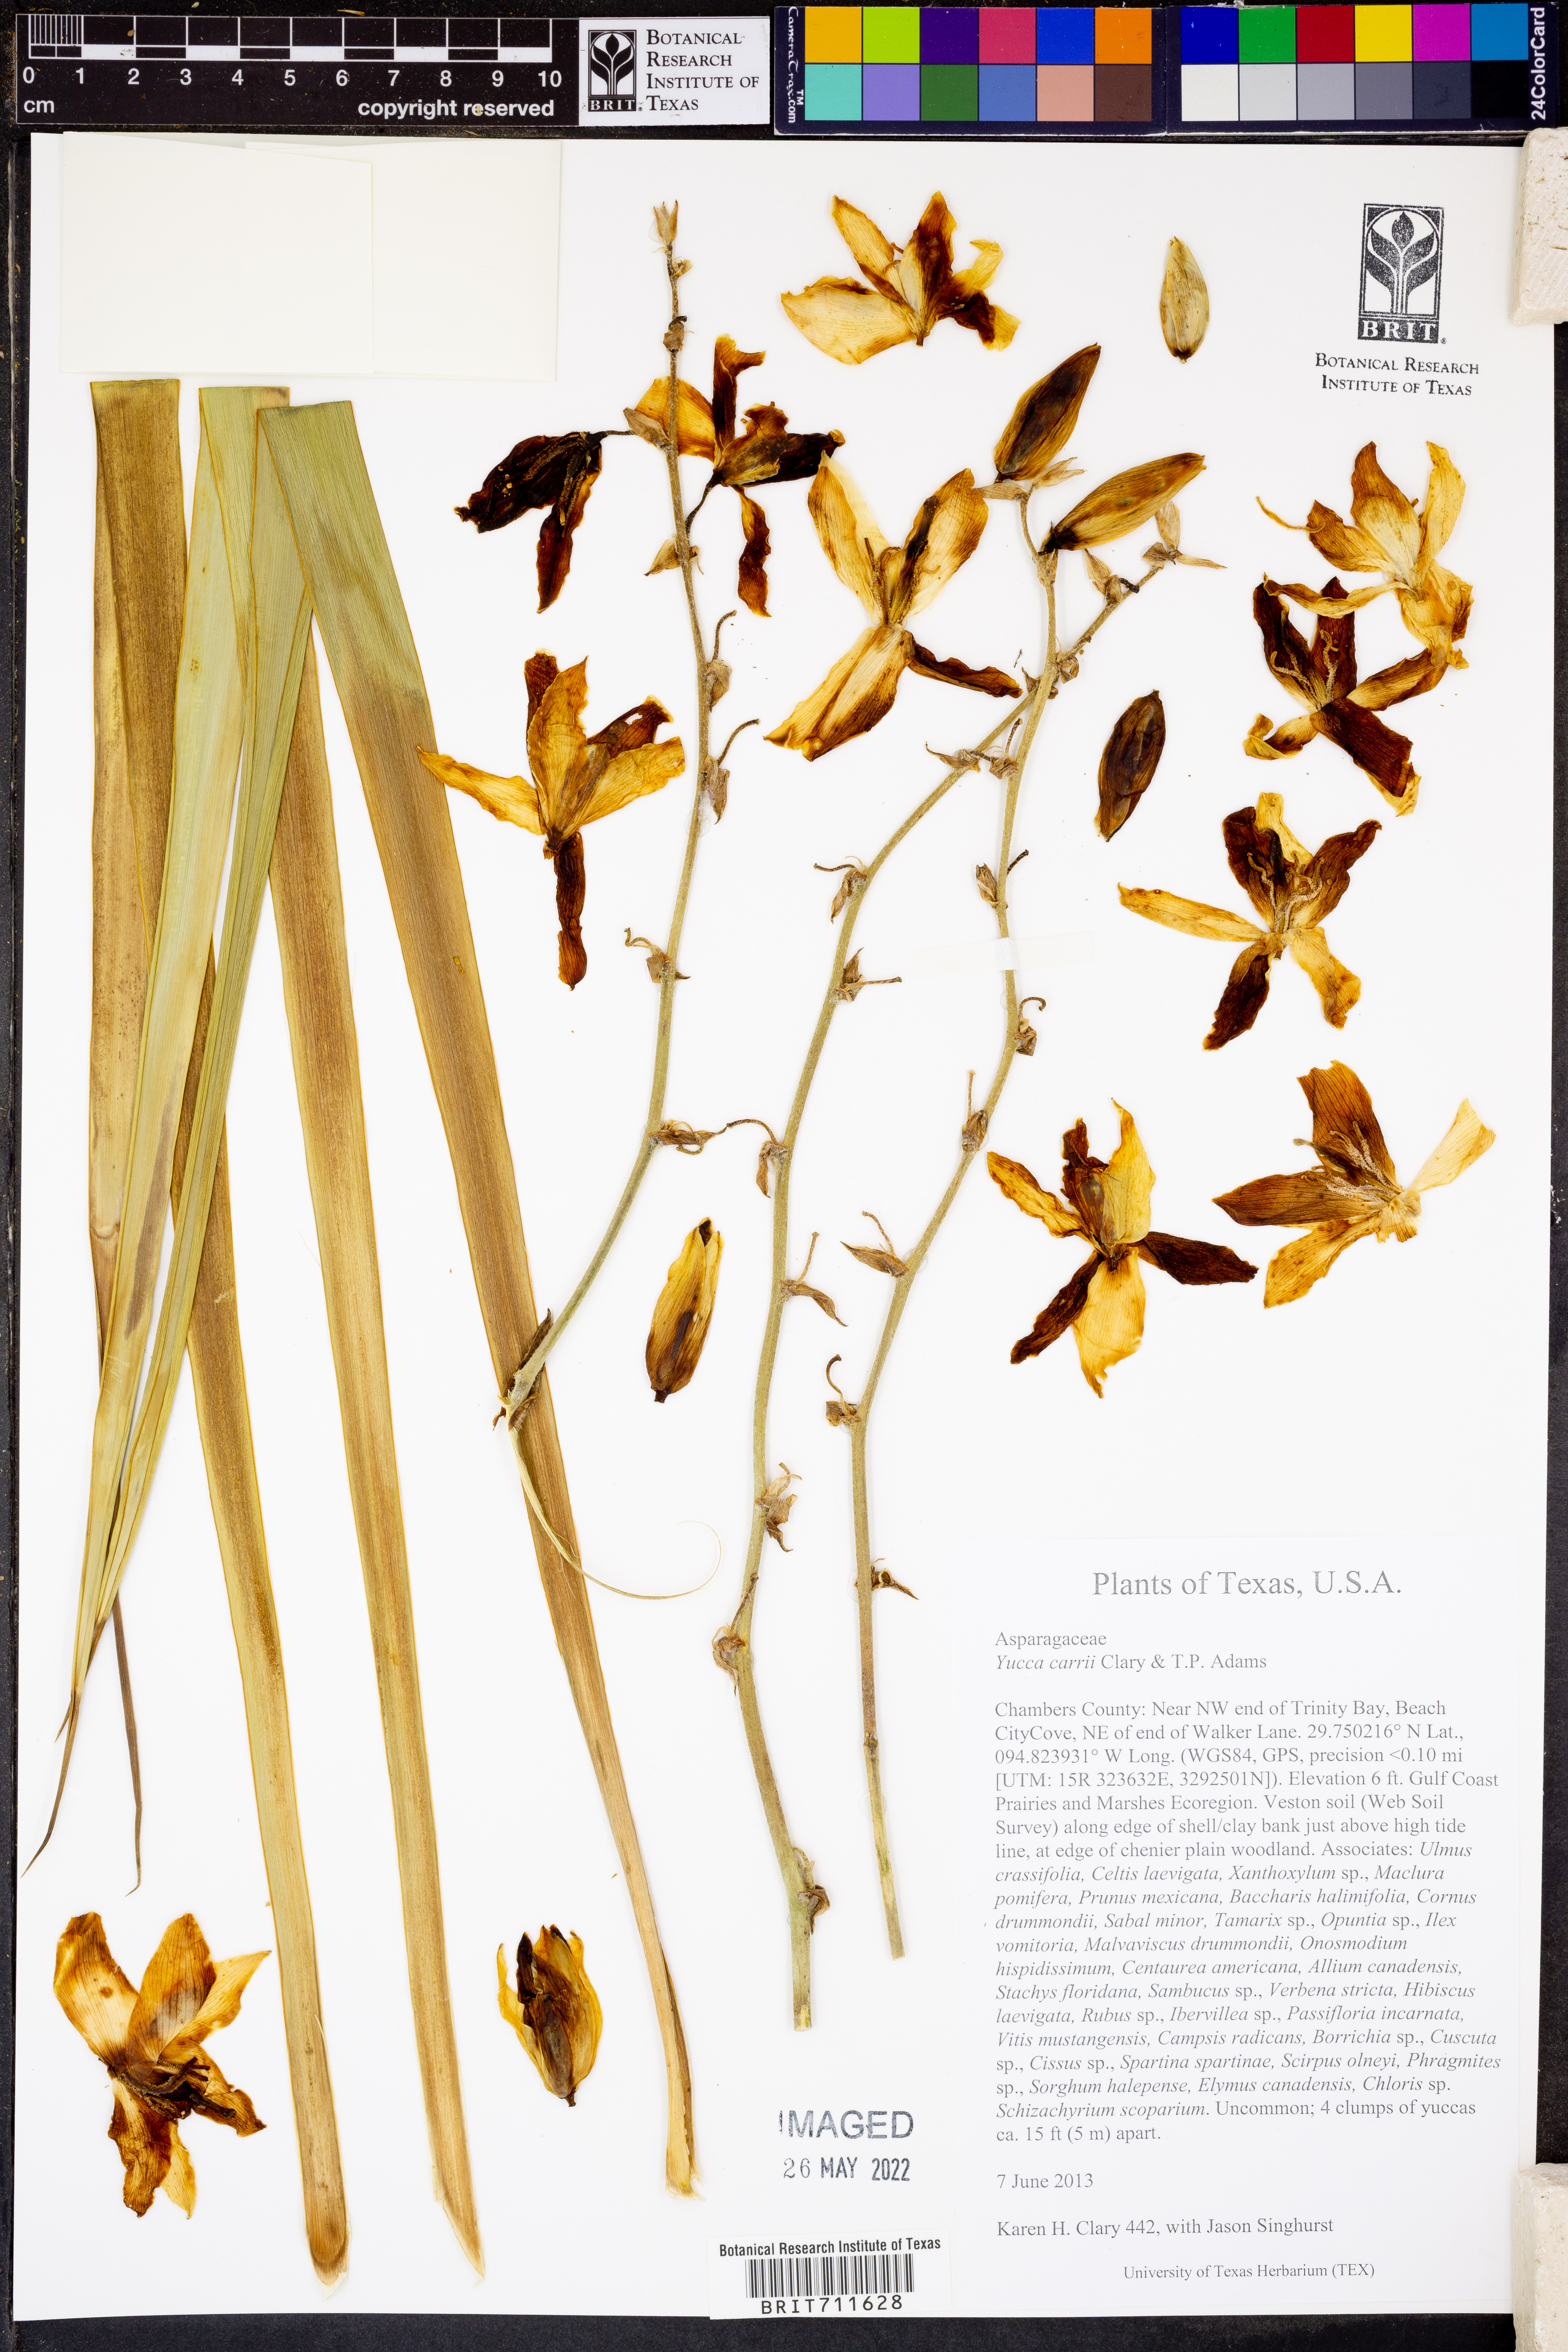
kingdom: Plantae
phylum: Tracheophyta
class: Liliopsida
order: Asparagales
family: Asparagaceae
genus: Yucca
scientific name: Yucca
